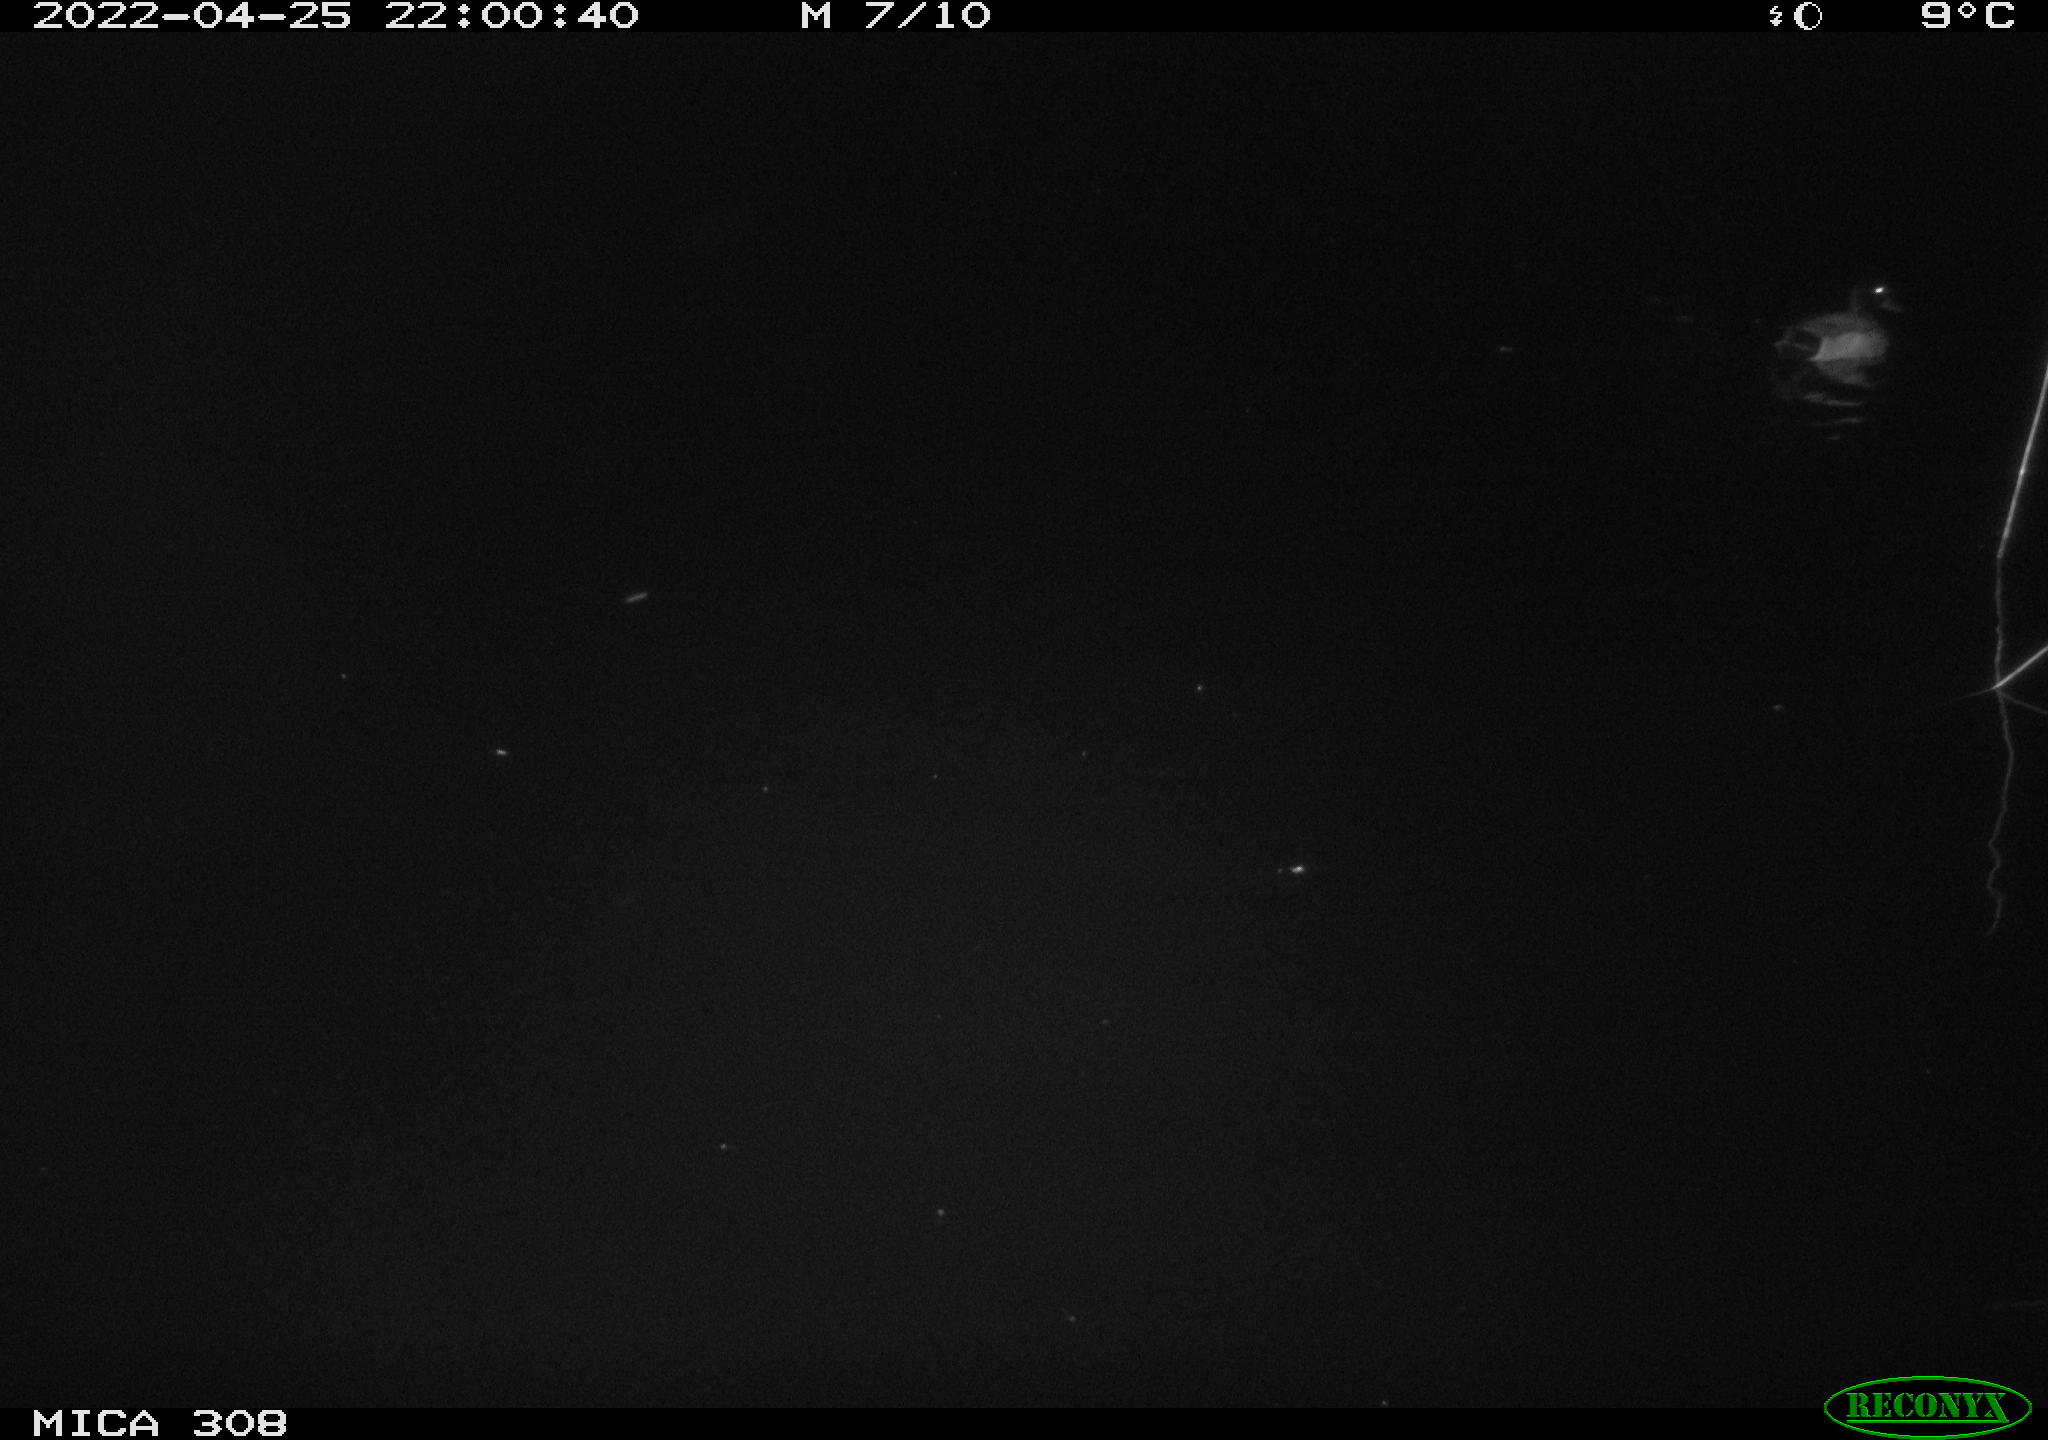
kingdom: Animalia
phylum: Chordata
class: Aves
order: Anseriformes
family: Anatidae
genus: Anas
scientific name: Anas platyrhynchos
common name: Mallard
